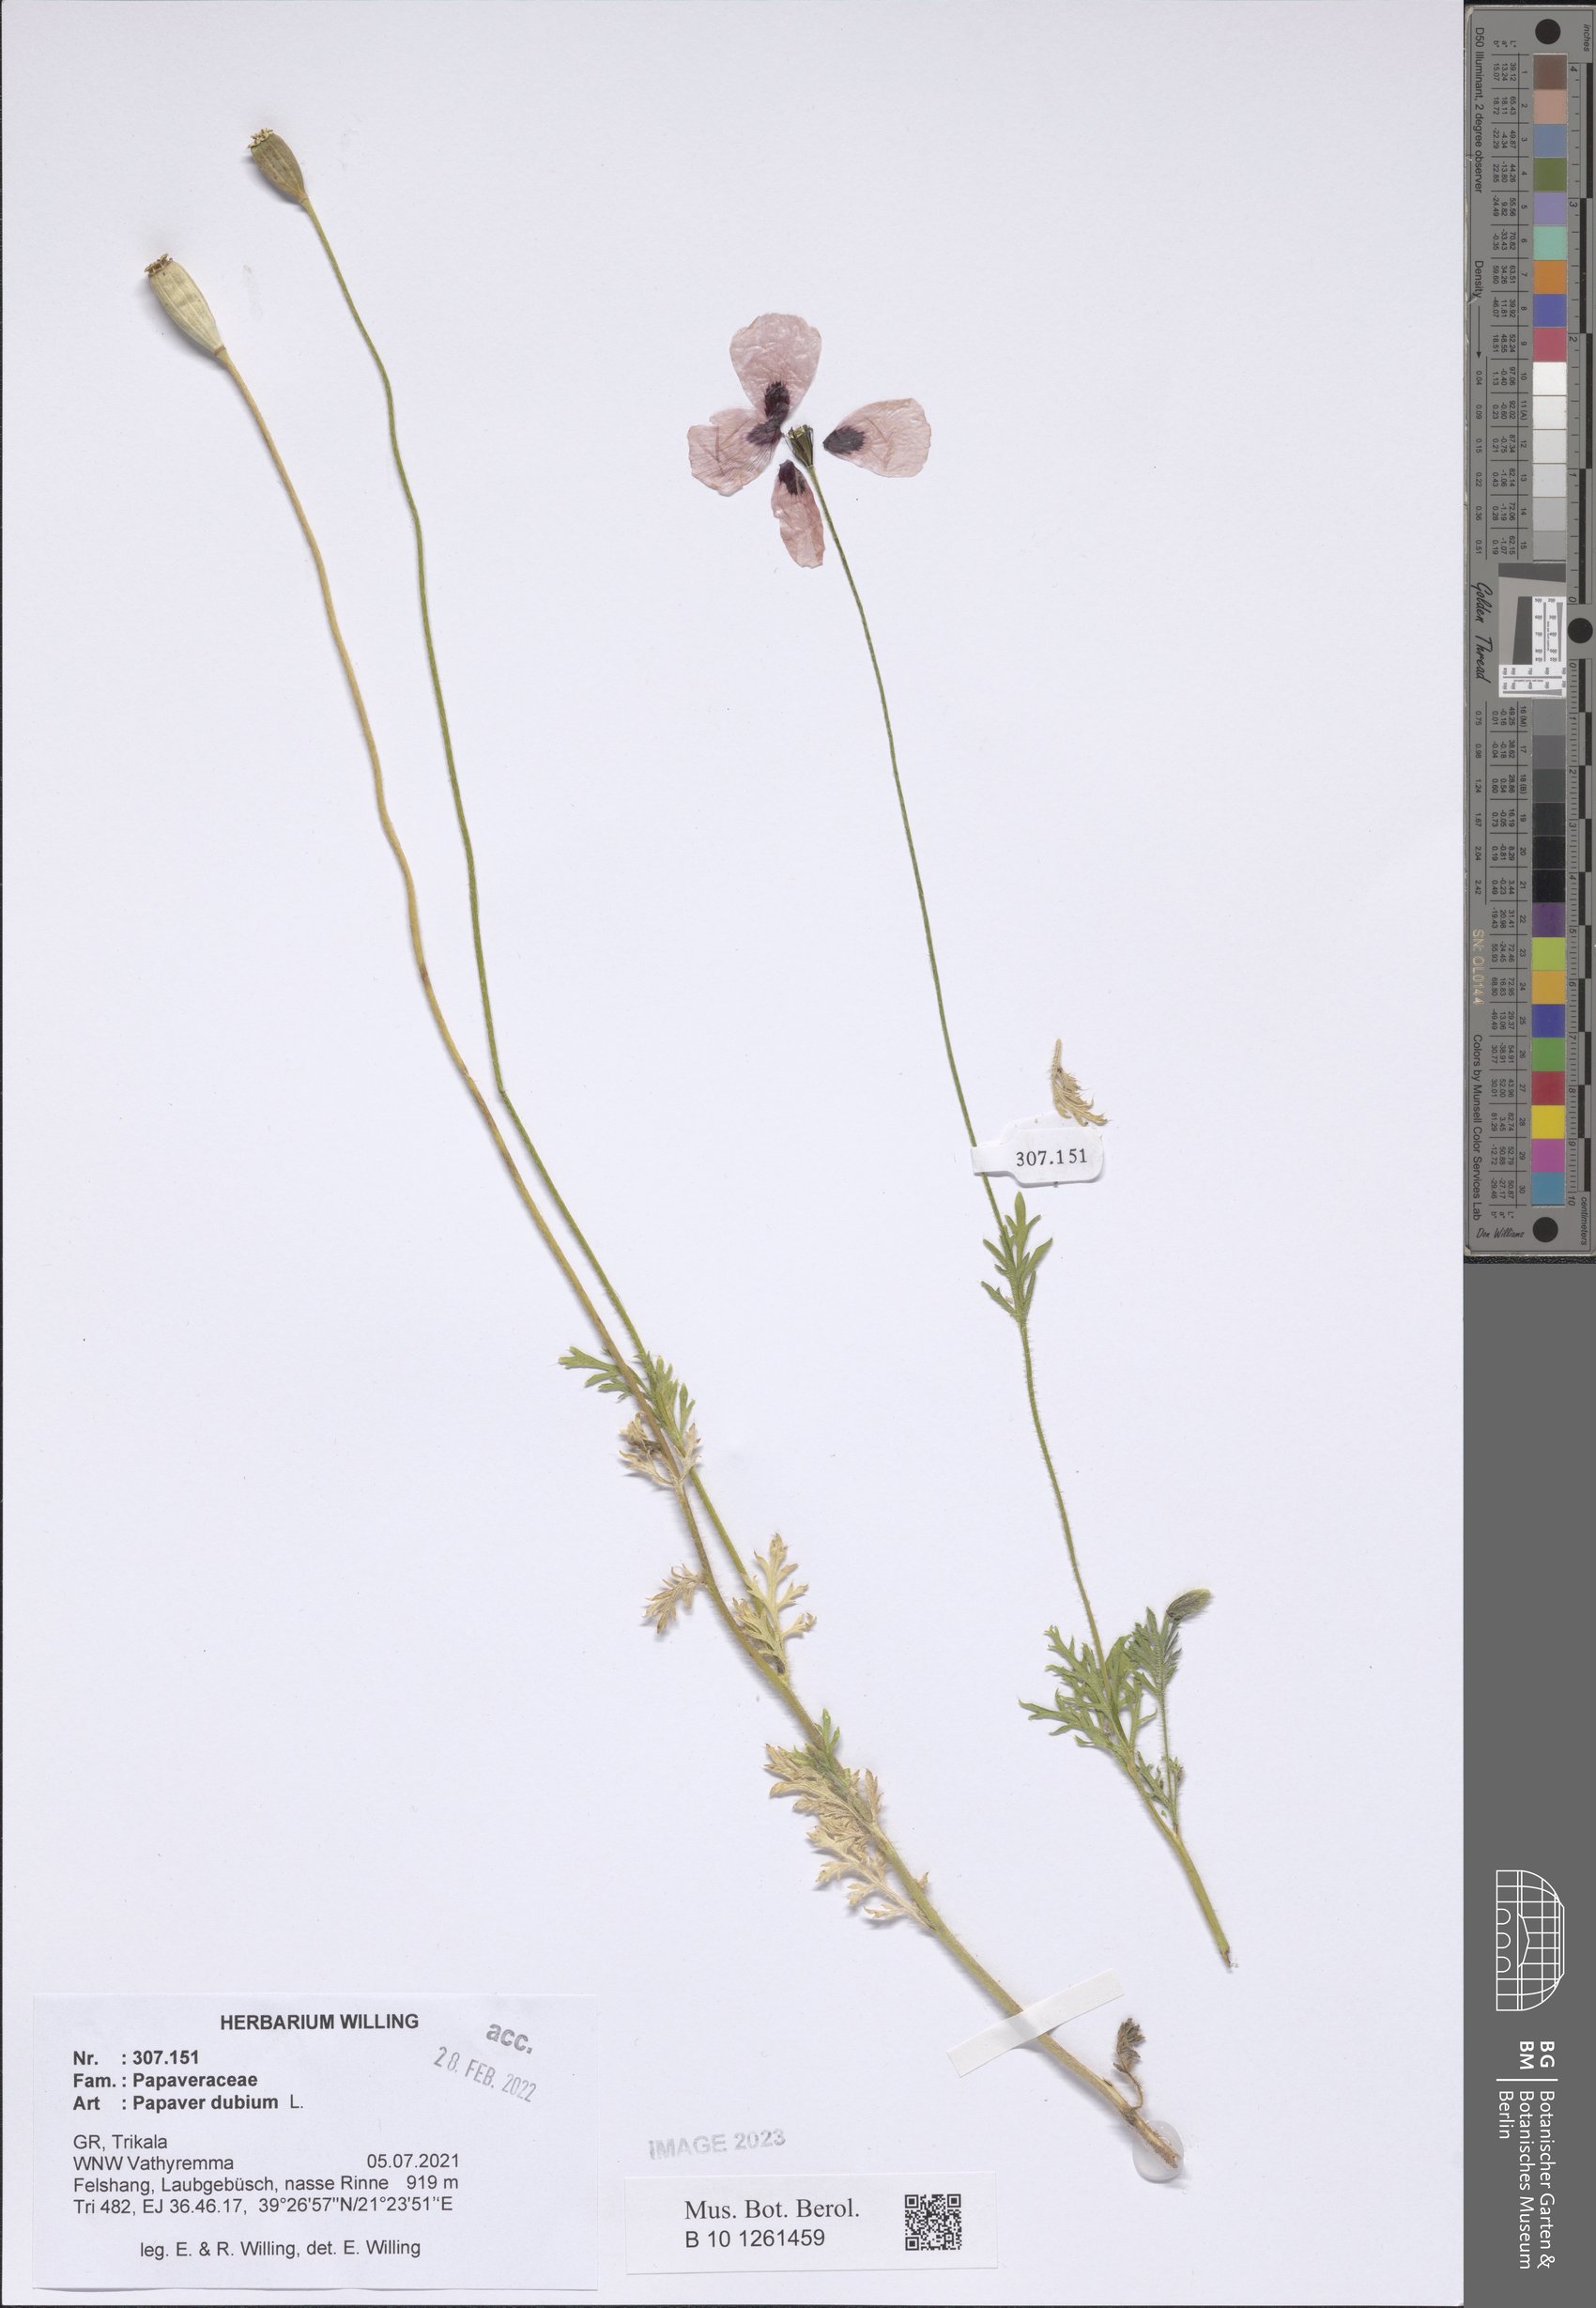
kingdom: Plantae
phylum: Tracheophyta
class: Magnoliopsida
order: Ranunculales
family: Papaveraceae
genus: Papaver
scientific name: Papaver dubium
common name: Long-headed poppy
